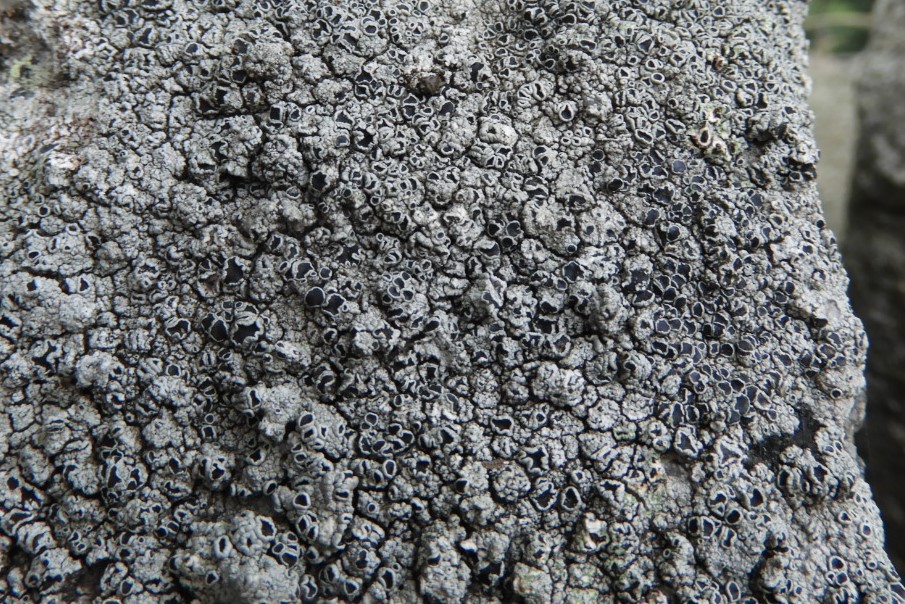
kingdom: Fungi
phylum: Ascomycota
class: Lecanoromycetes
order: Lecanorales
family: Tephromelataceae
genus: Tephromela
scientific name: Tephromela atra
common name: sortfrugtet kantskivelav
